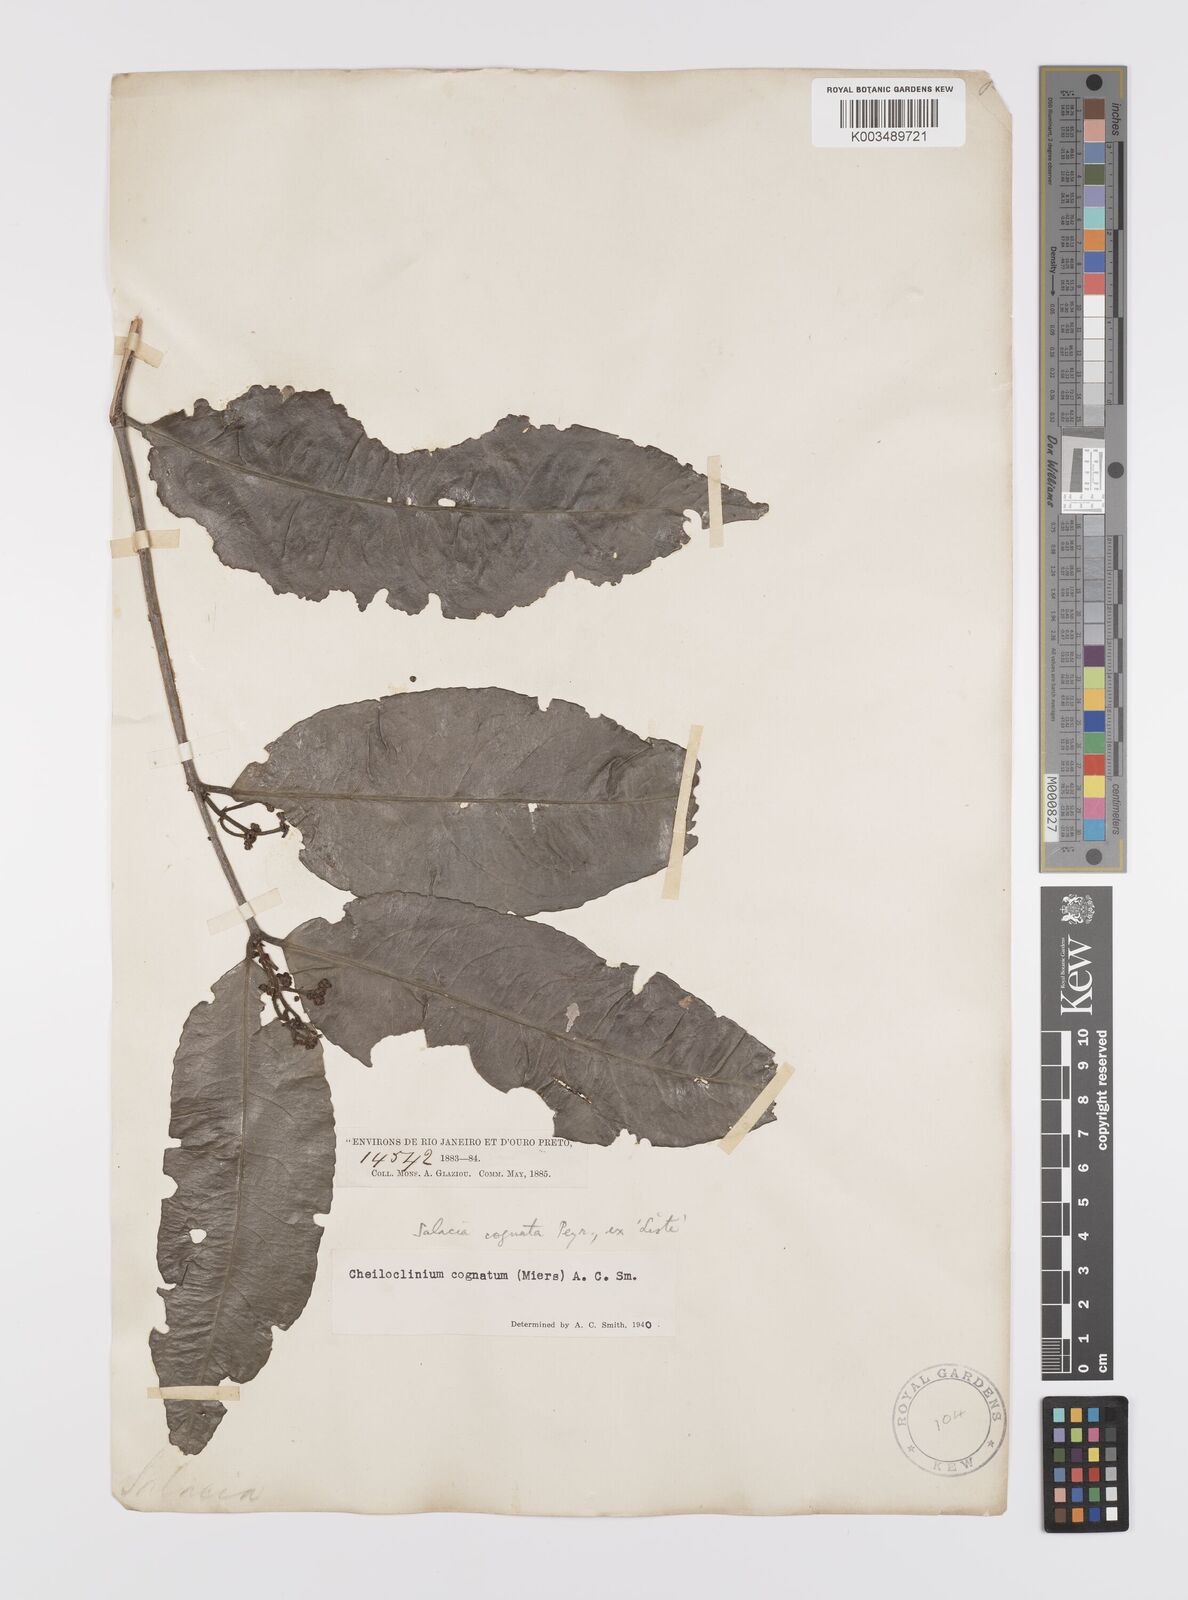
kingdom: Plantae
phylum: Tracheophyta
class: Magnoliopsida
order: Celastrales
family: Celastraceae
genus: Cheiloclinium
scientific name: Cheiloclinium cognatum
